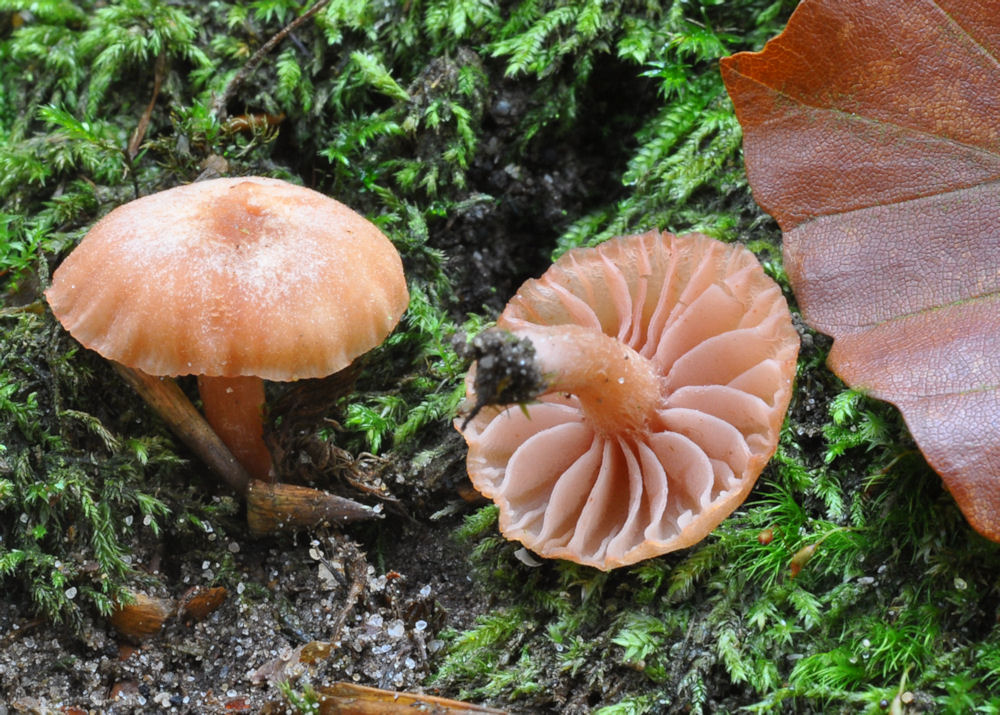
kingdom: Fungi
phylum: Basidiomycota
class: Agaricomycetes
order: Agaricales
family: Hydnangiaceae
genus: Laccaria
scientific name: Laccaria fraterna
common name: pilemose-ametysthat
